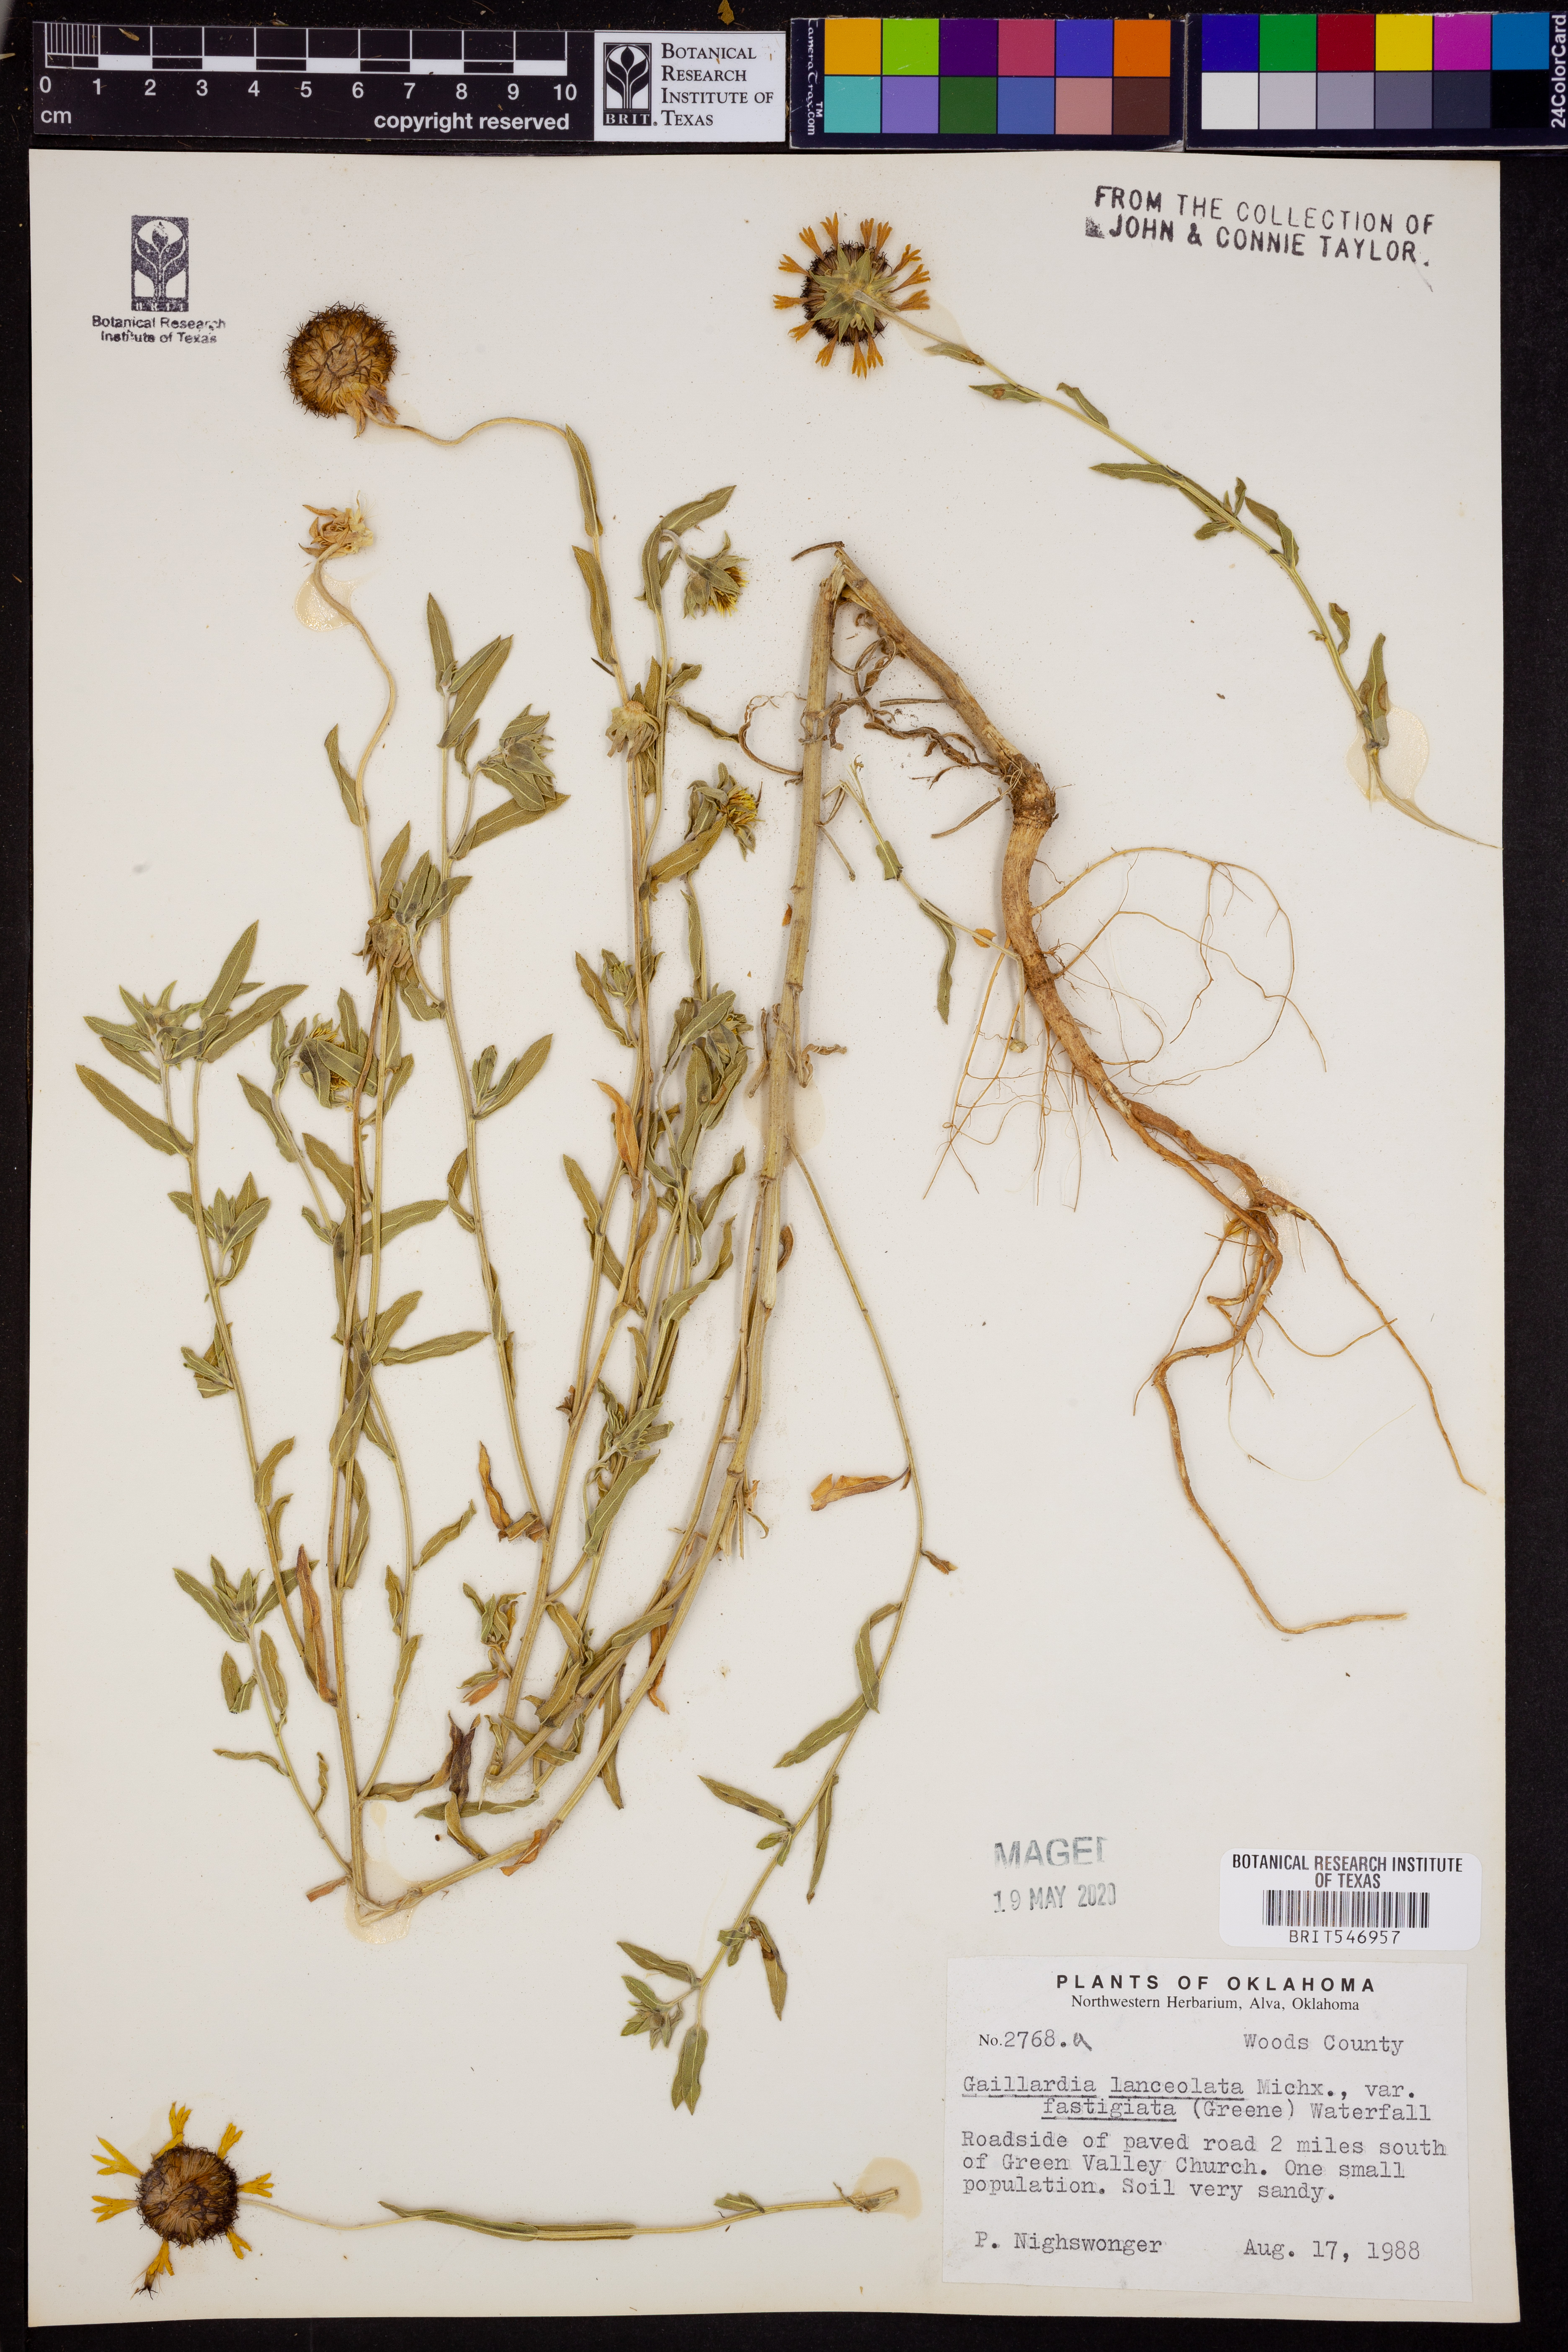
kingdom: Plantae
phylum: Tracheophyta
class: Magnoliopsida
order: Asterales
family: Asteraceae
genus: Gaillardia
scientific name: Gaillardia aestivalis
